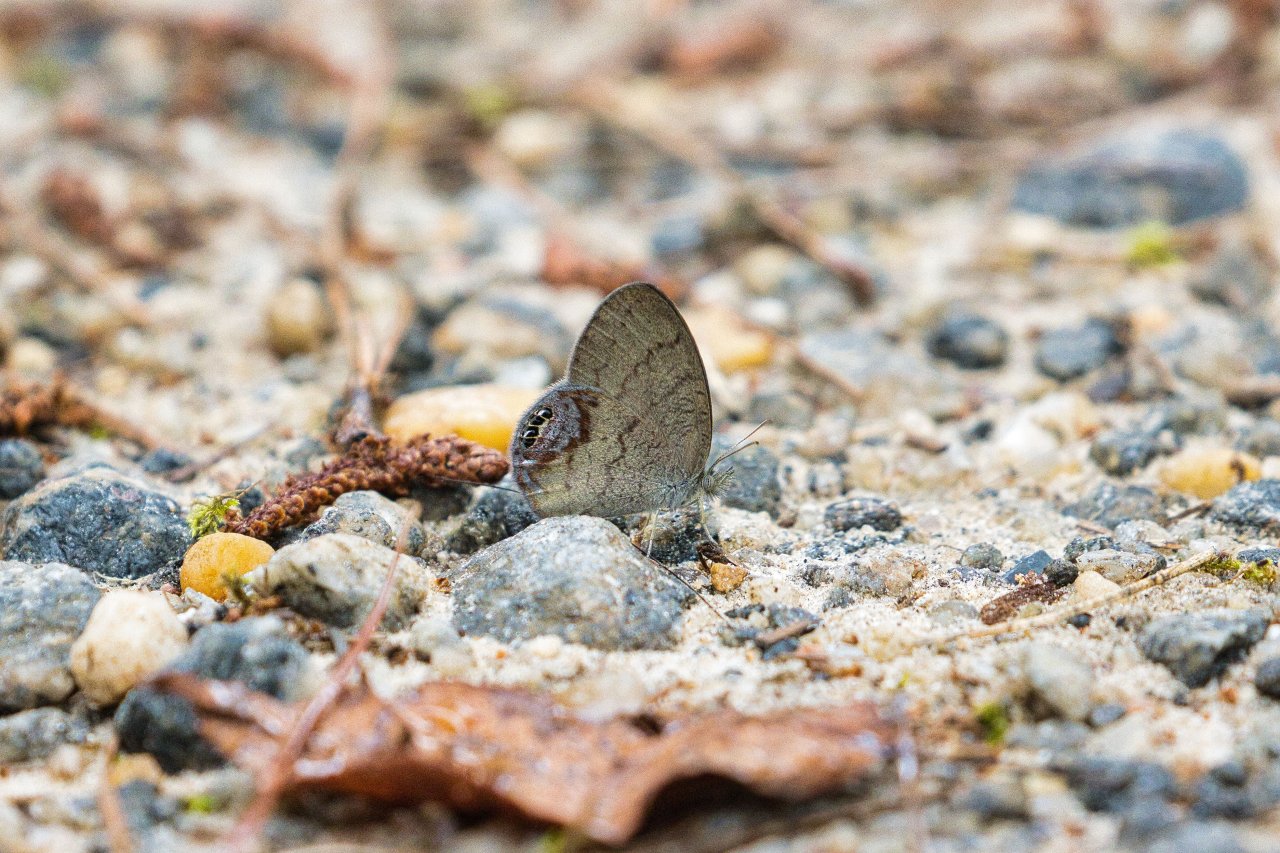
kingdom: Animalia
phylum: Arthropoda
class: Insecta
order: Lepidoptera
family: Nymphalidae
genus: Euptychia
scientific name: Euptychia cornelius
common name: Gemmed Satyr
